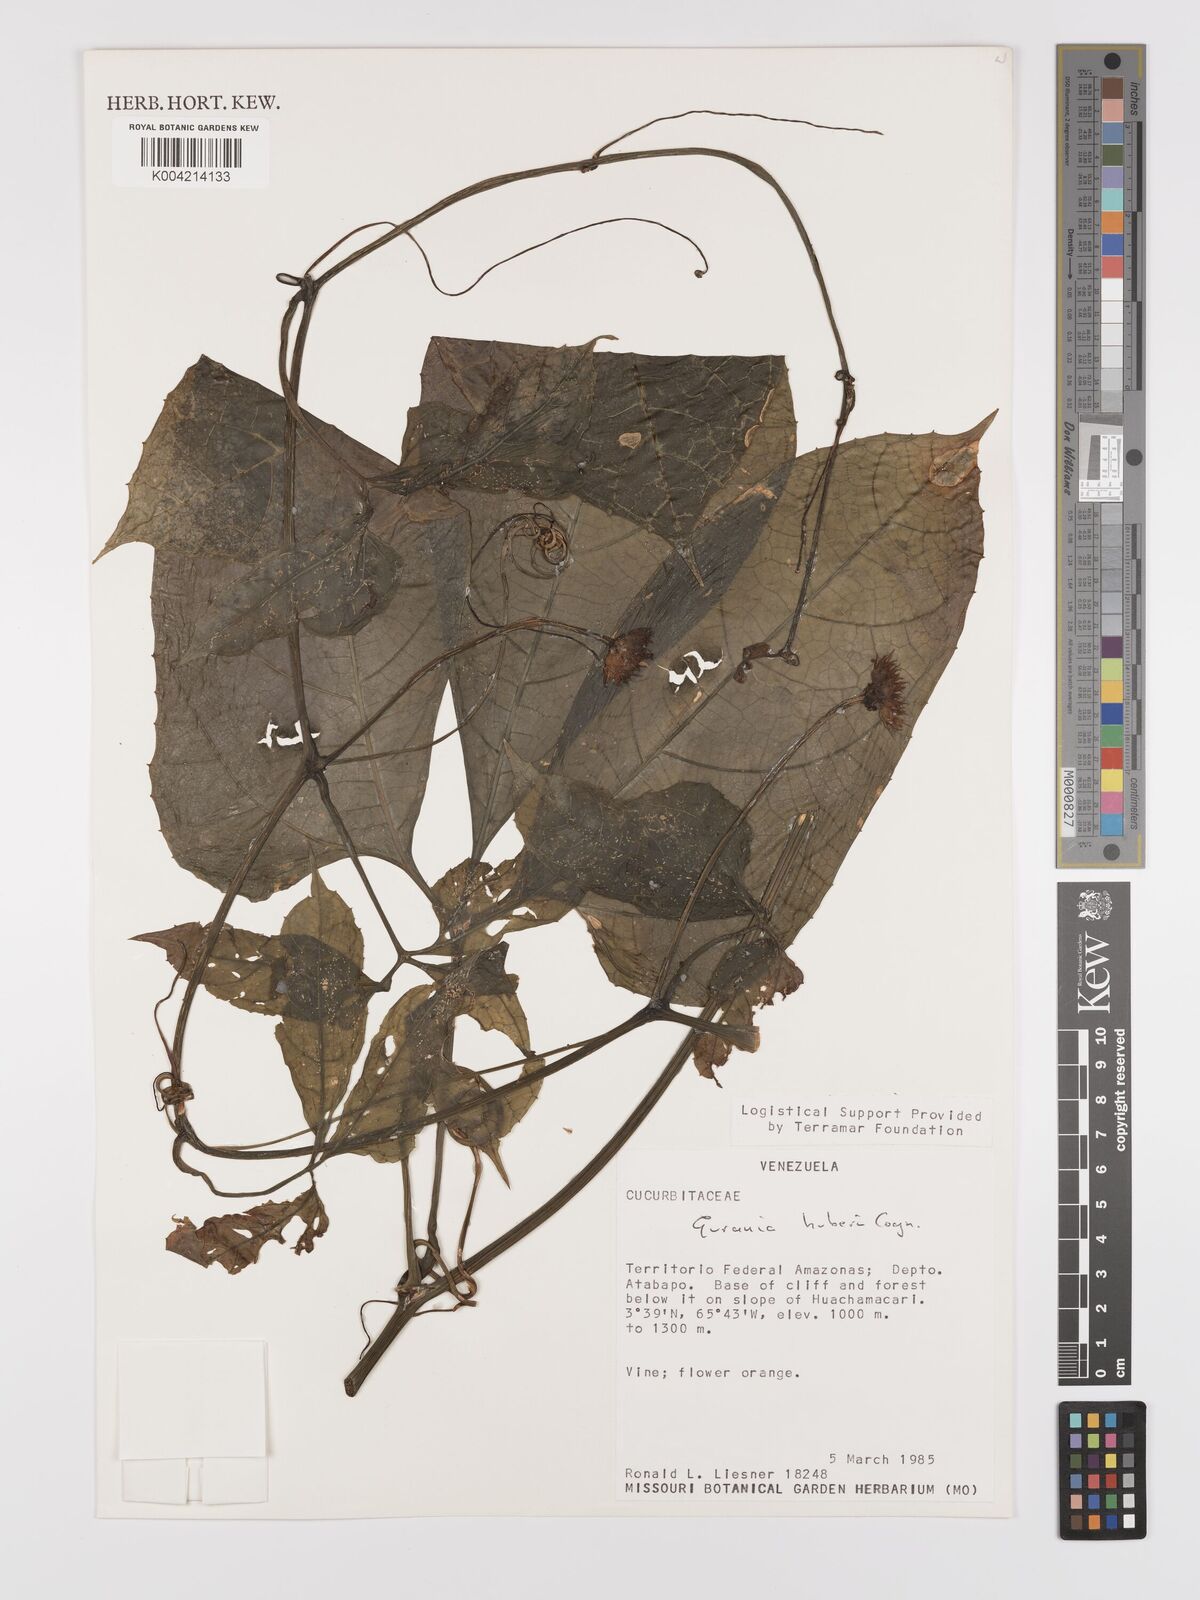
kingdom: Plantae
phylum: Tracheophyta
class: Magnoliopsida
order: Cucurbitales
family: Cucurbitaceae
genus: Gurania
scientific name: Gurania huberi
